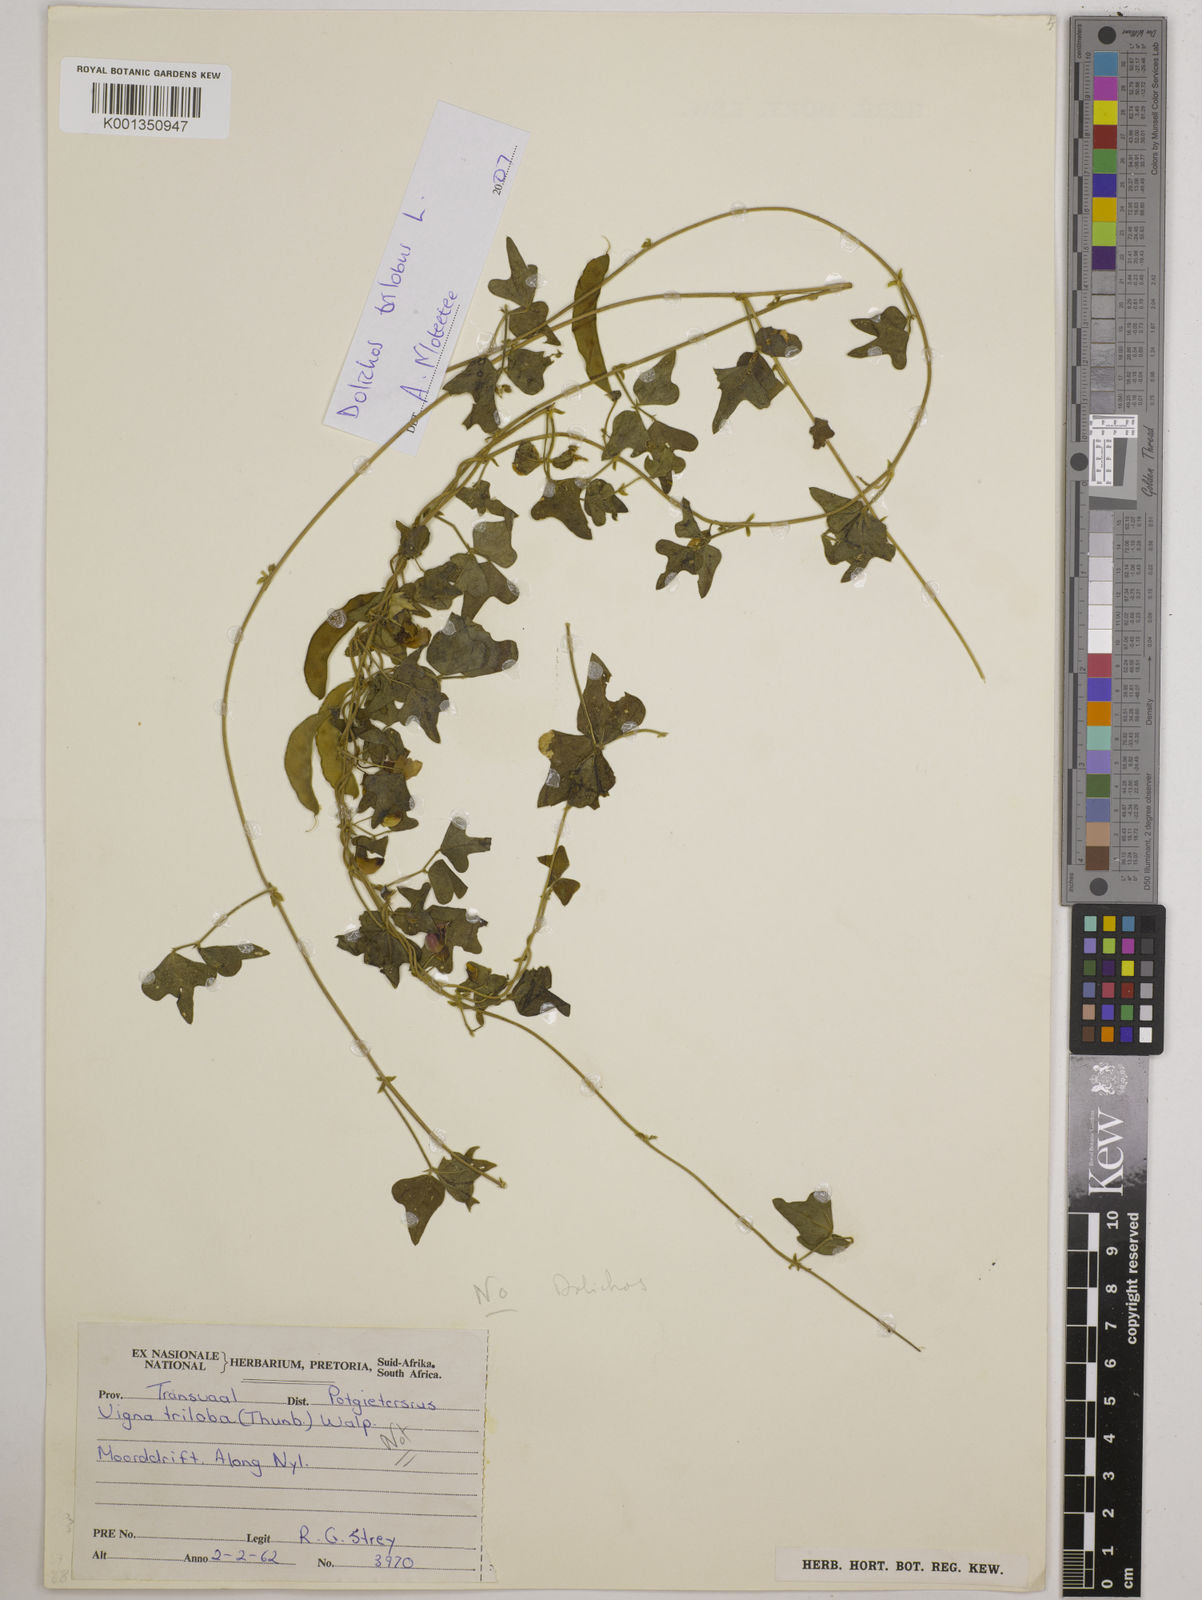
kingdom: Plantae
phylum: Tracheophyta
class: Magnoliopsida
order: Fabales
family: Fabaceae
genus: Dolichos
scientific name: Dolichos
